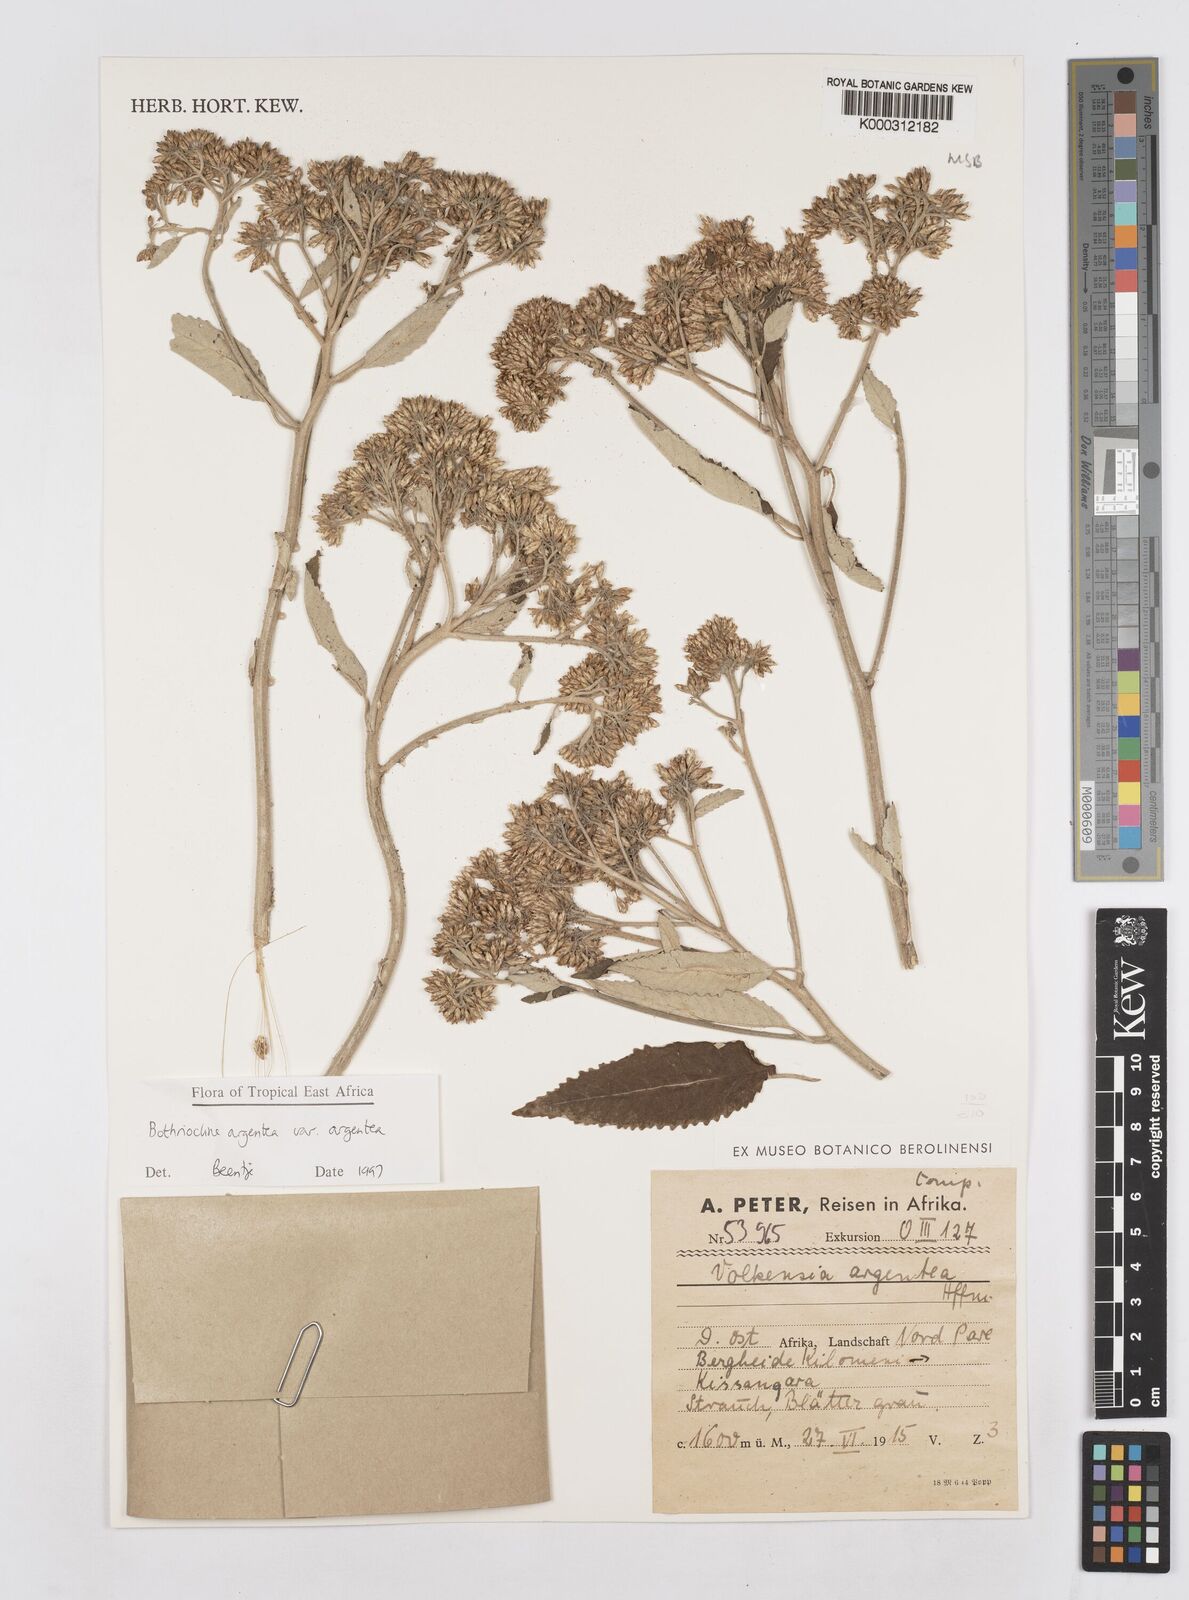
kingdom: Plantae
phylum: Tracheophyta
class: Magnoliopsida
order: Asterales
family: Asteraceae
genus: Bothriocline
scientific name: Bothriocline argentea
